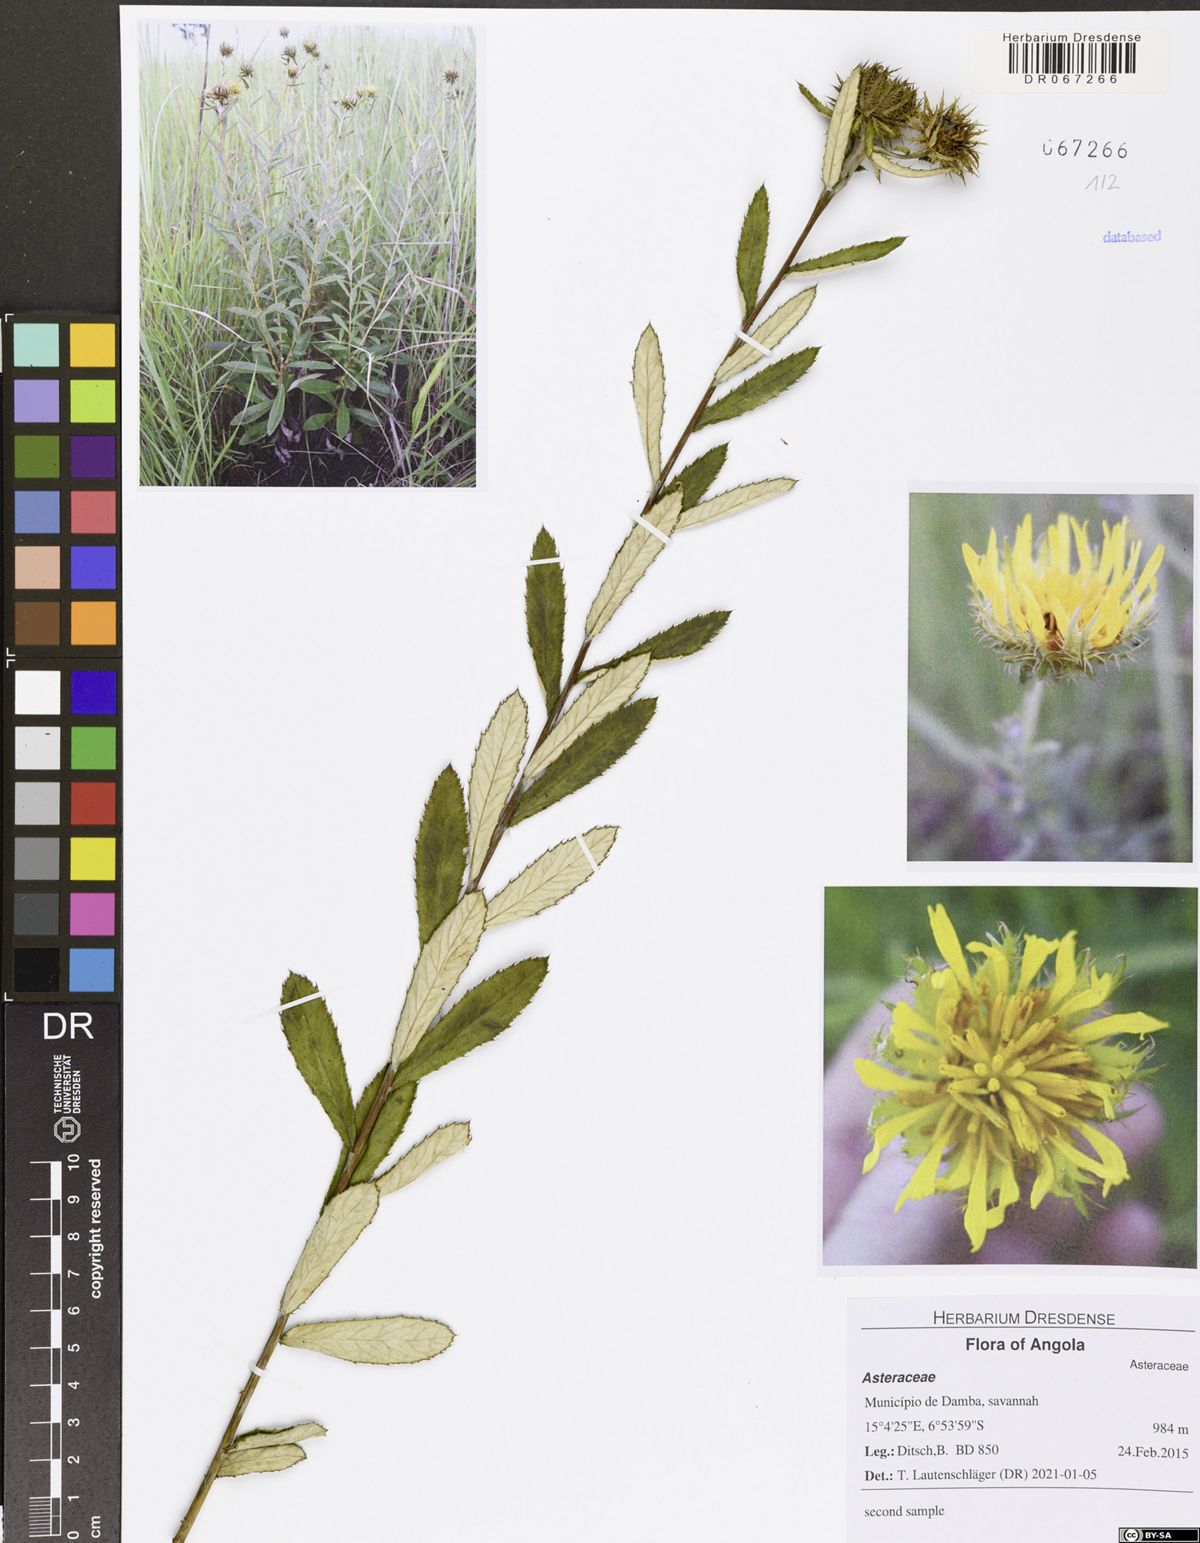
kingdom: Plantae
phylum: Tracheophyta
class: Magnoliopsida
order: Asterales
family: Asteraceae
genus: Berkheya
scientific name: Berkheya angolensis
